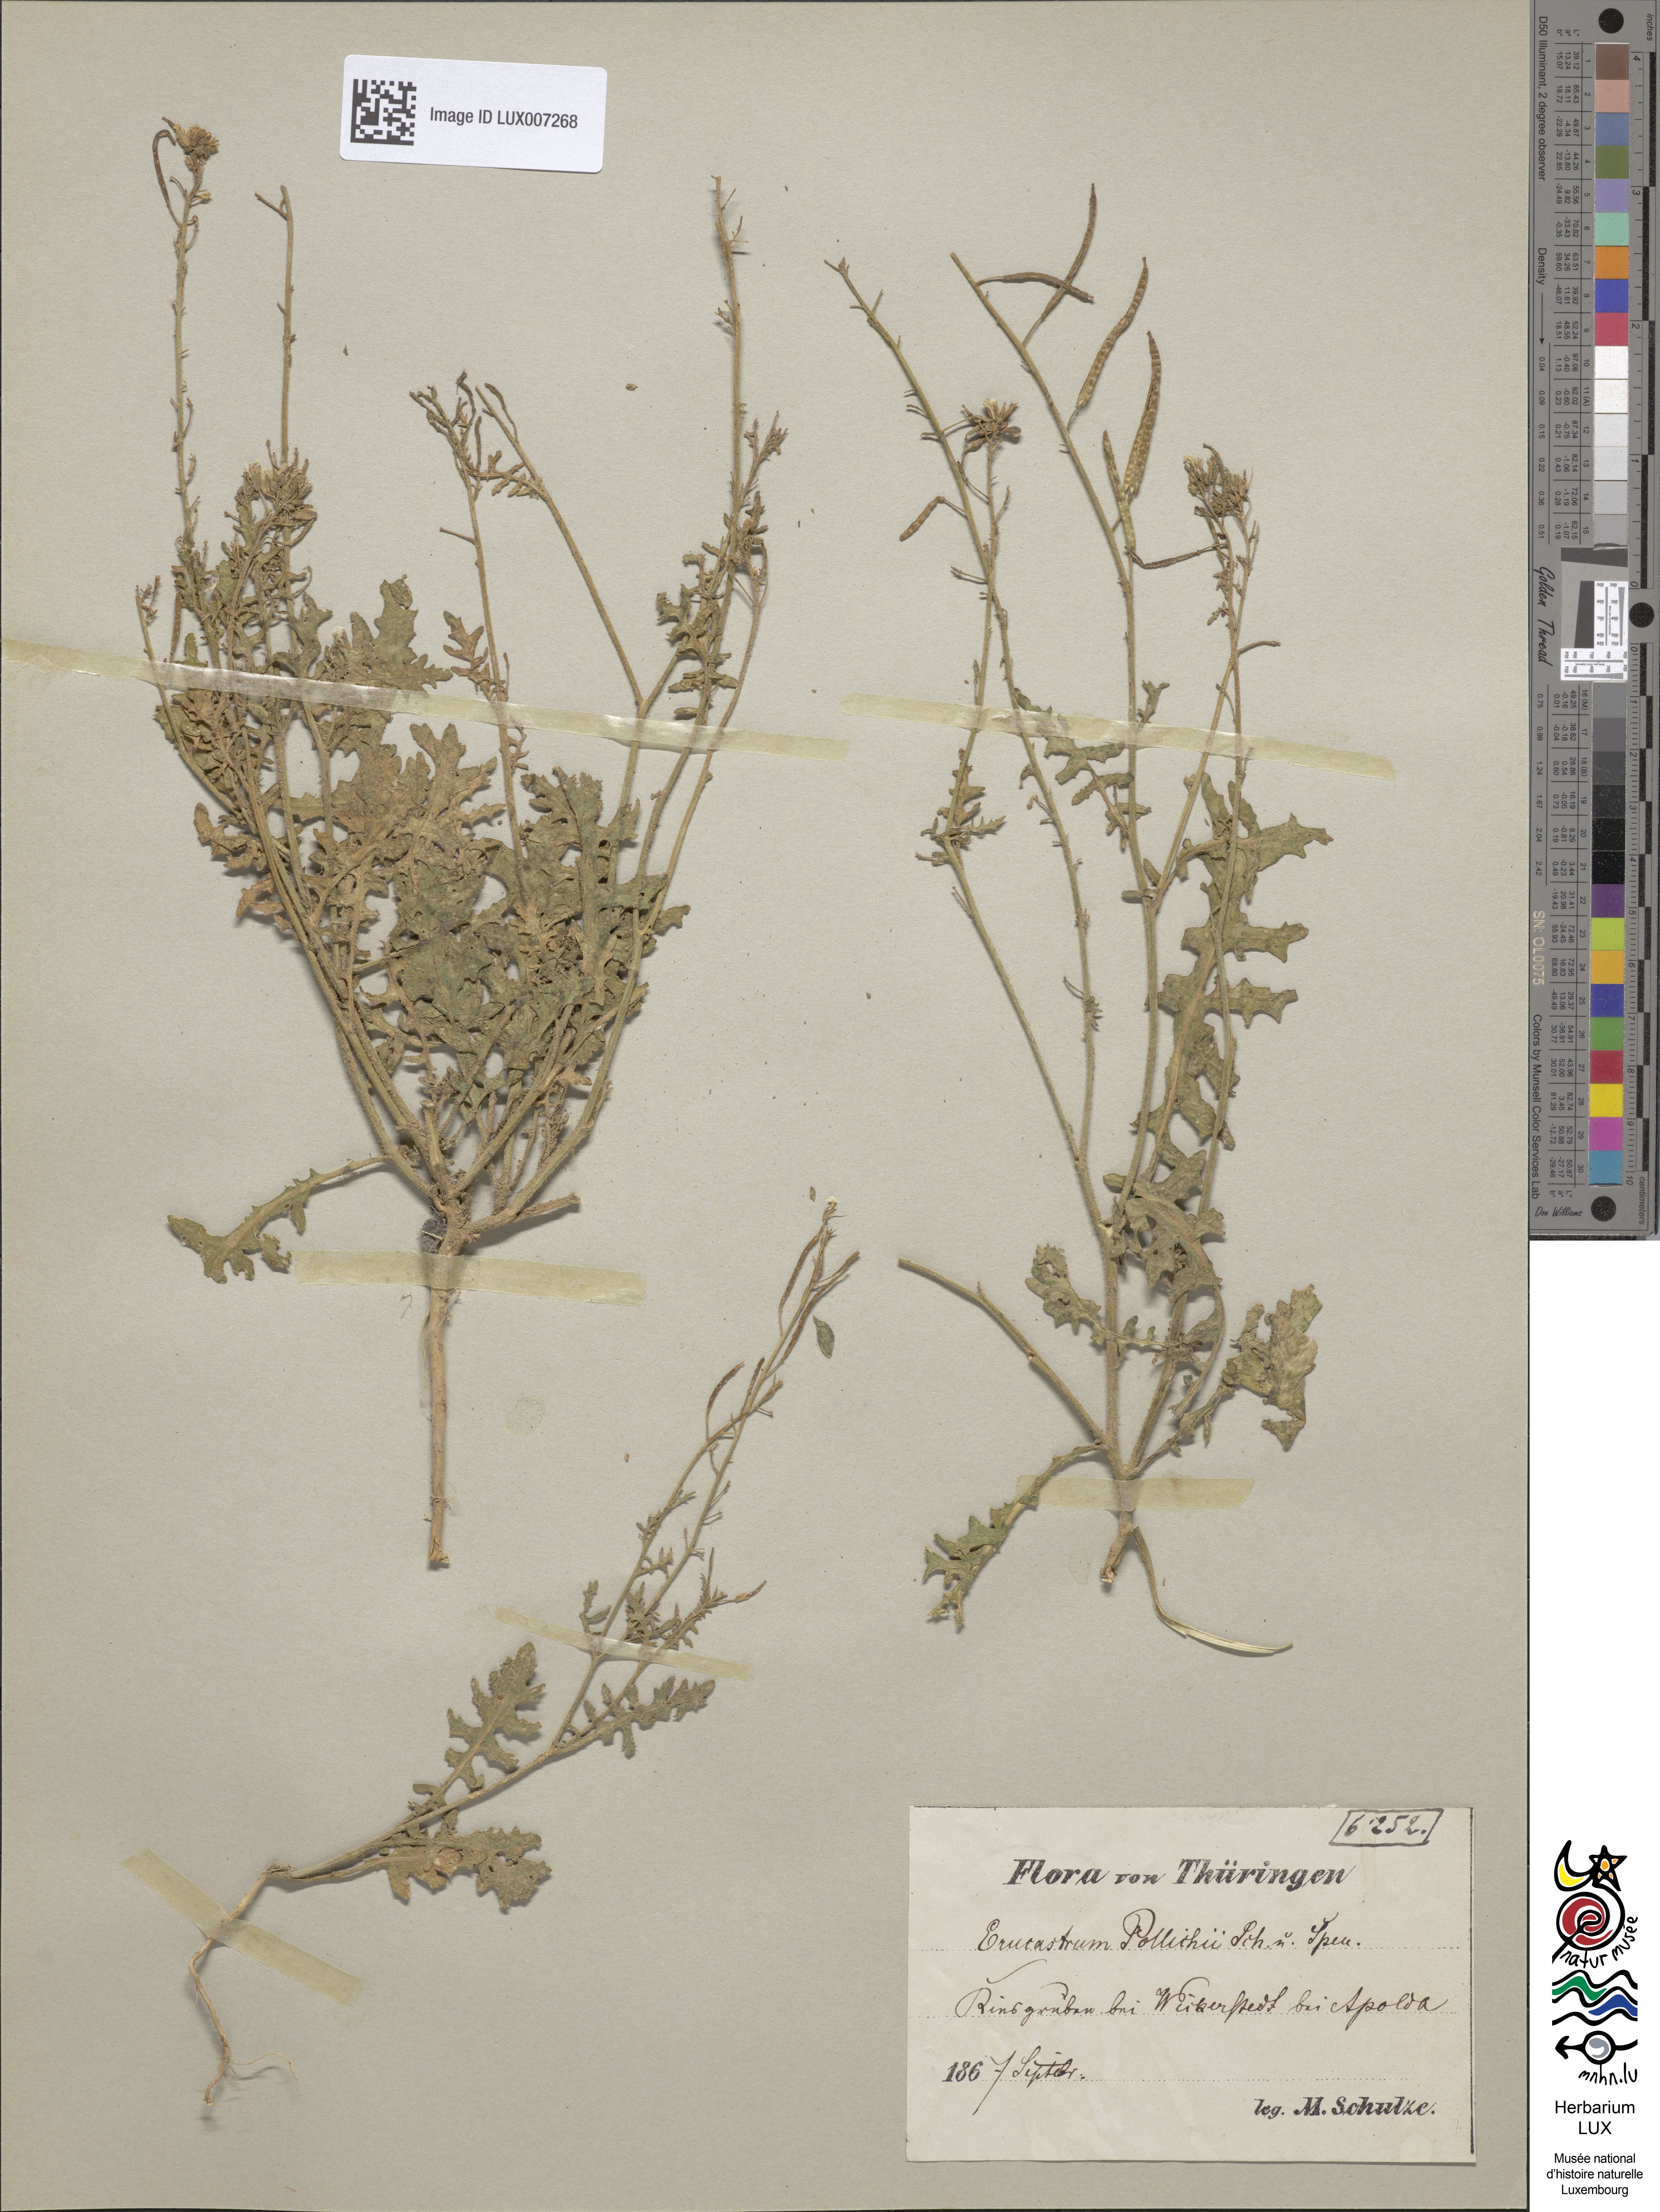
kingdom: Plantae
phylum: Tracheophyta
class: Magnoliopsida
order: Brassicales
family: Brassicaceae
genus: Erucastrum
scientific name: Erucastrum gallicum
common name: Hairy rocket
